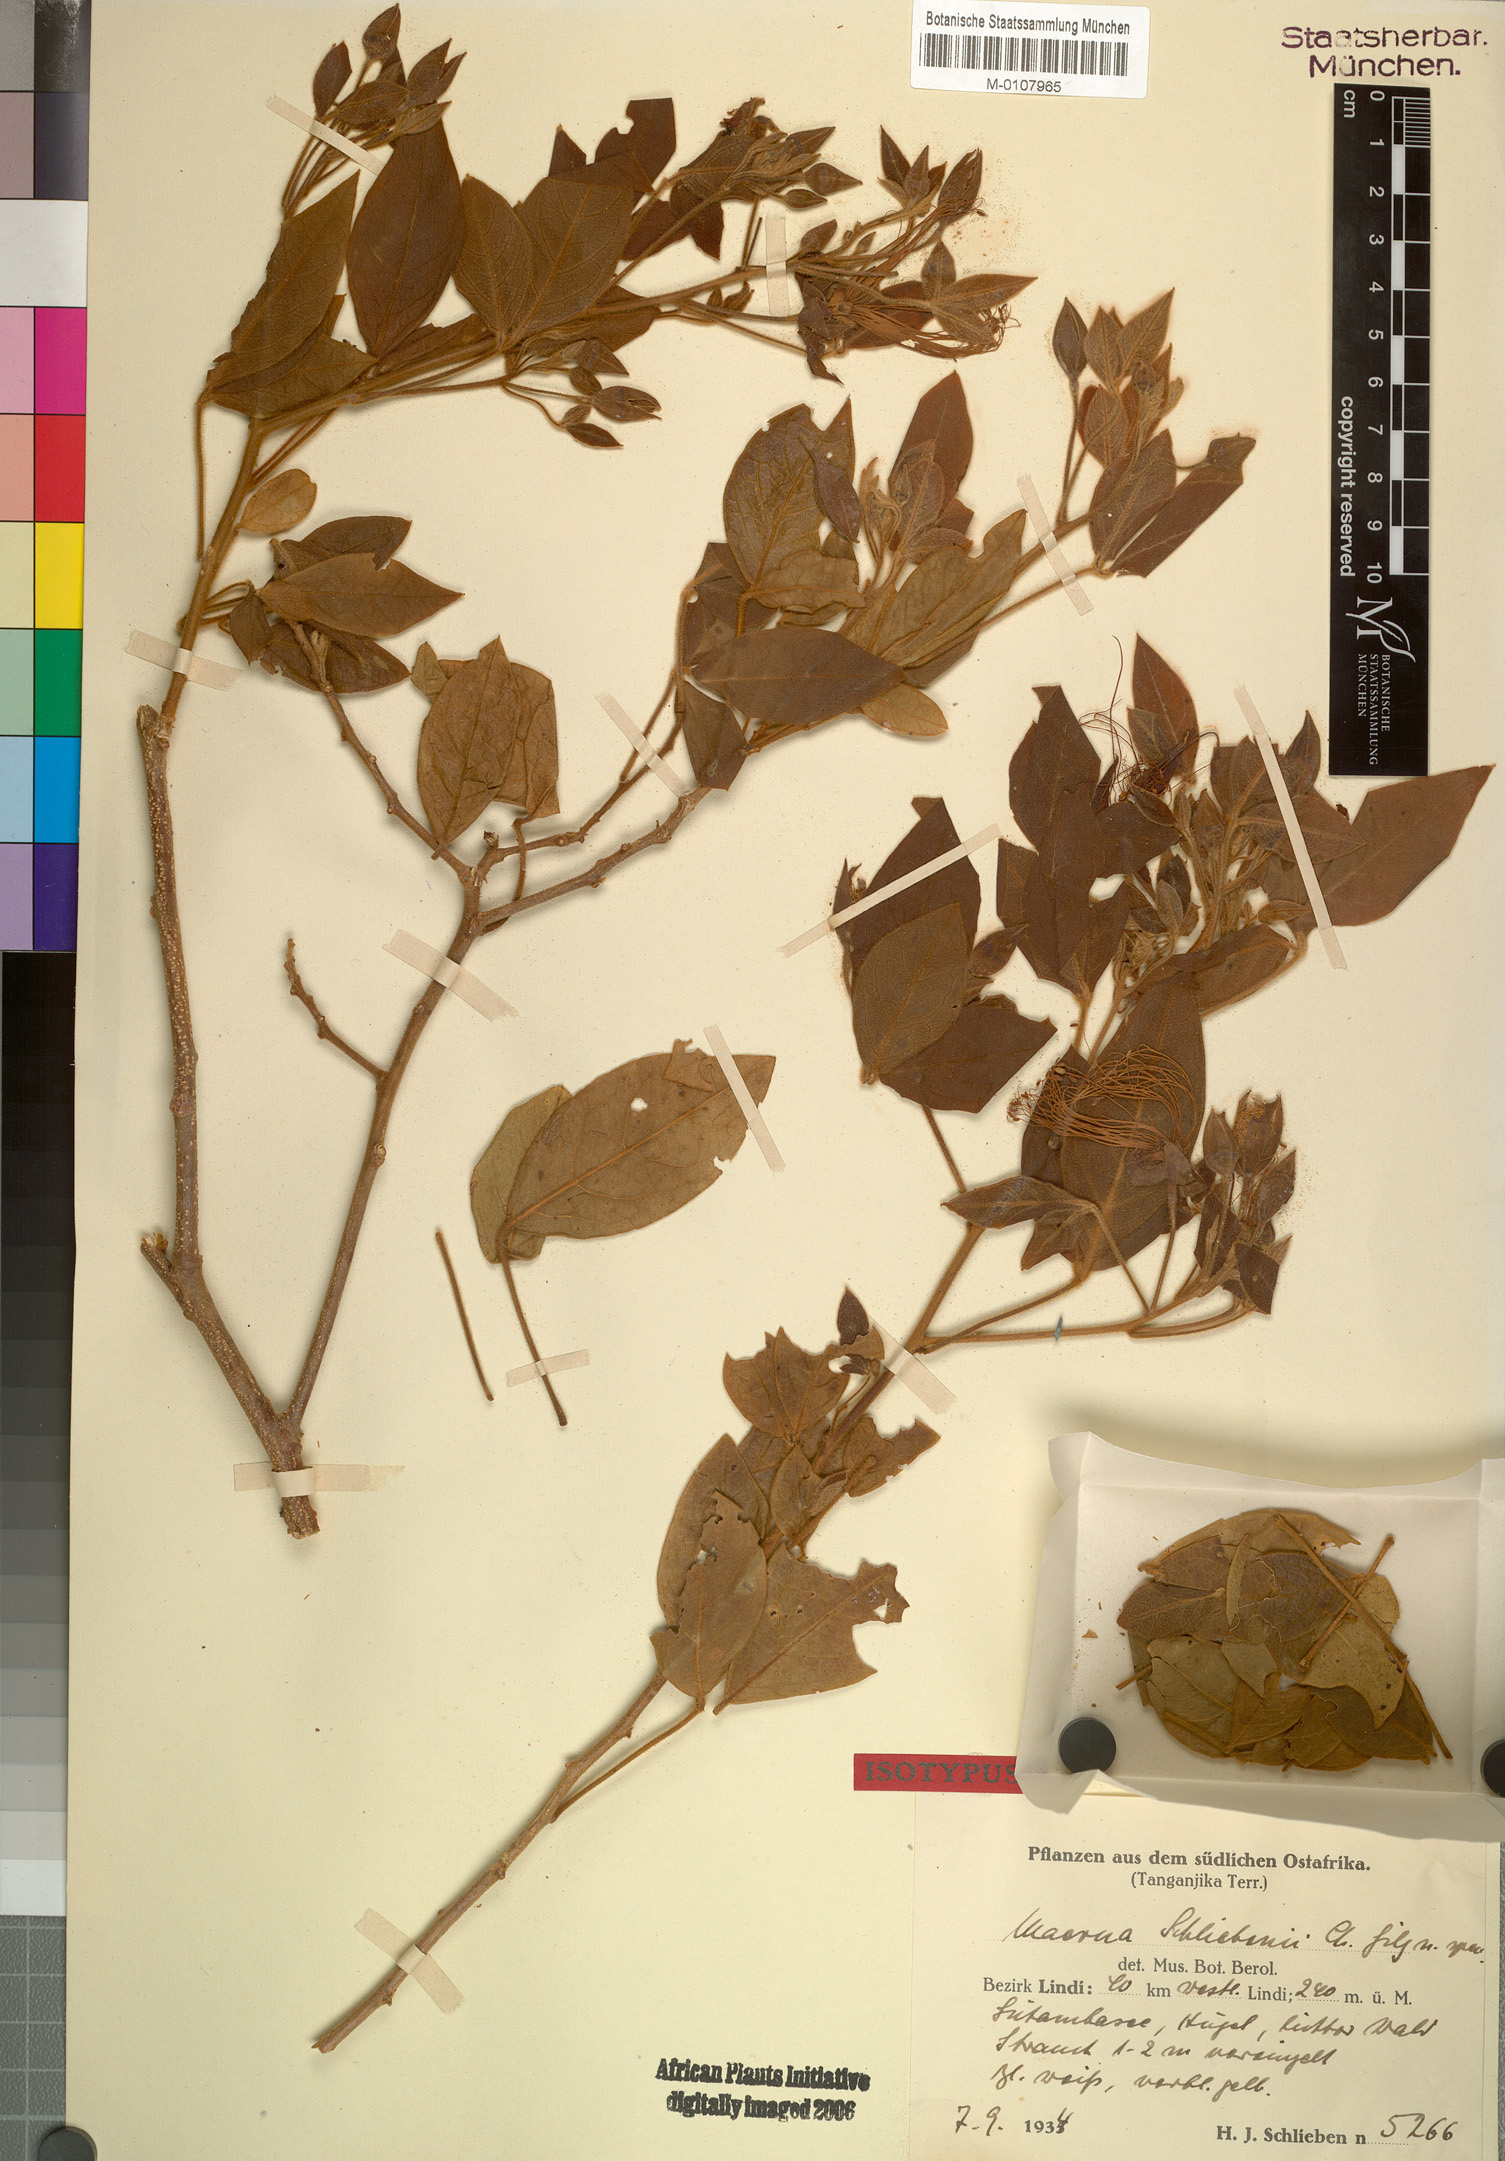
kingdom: Plantae
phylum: Tracheophyta
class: Magnoliopsida
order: Brassicales
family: Capparaceae
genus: Maerua
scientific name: Maerua schliebenii
